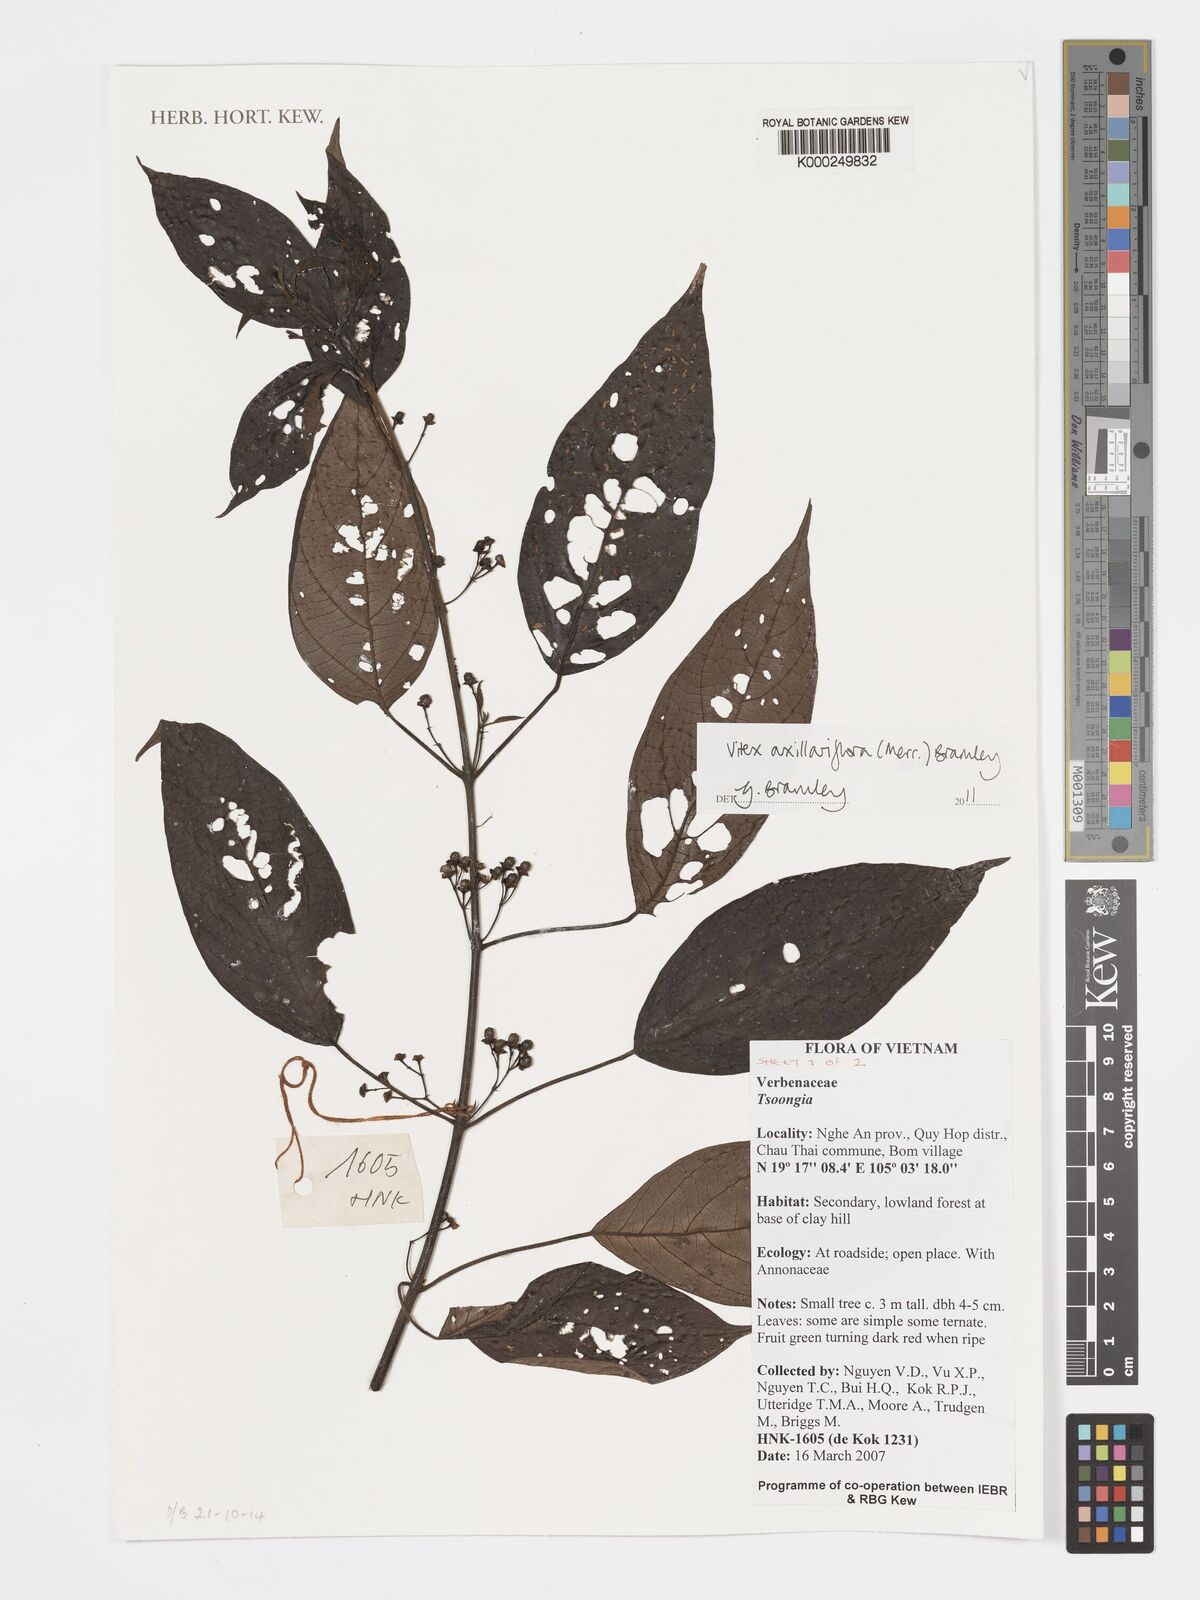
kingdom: Plantae
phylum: Tracheophyta
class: Magnoliopsida
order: Lamiales
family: Lamiaceae
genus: Vitex
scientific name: Vitex axillariflora
